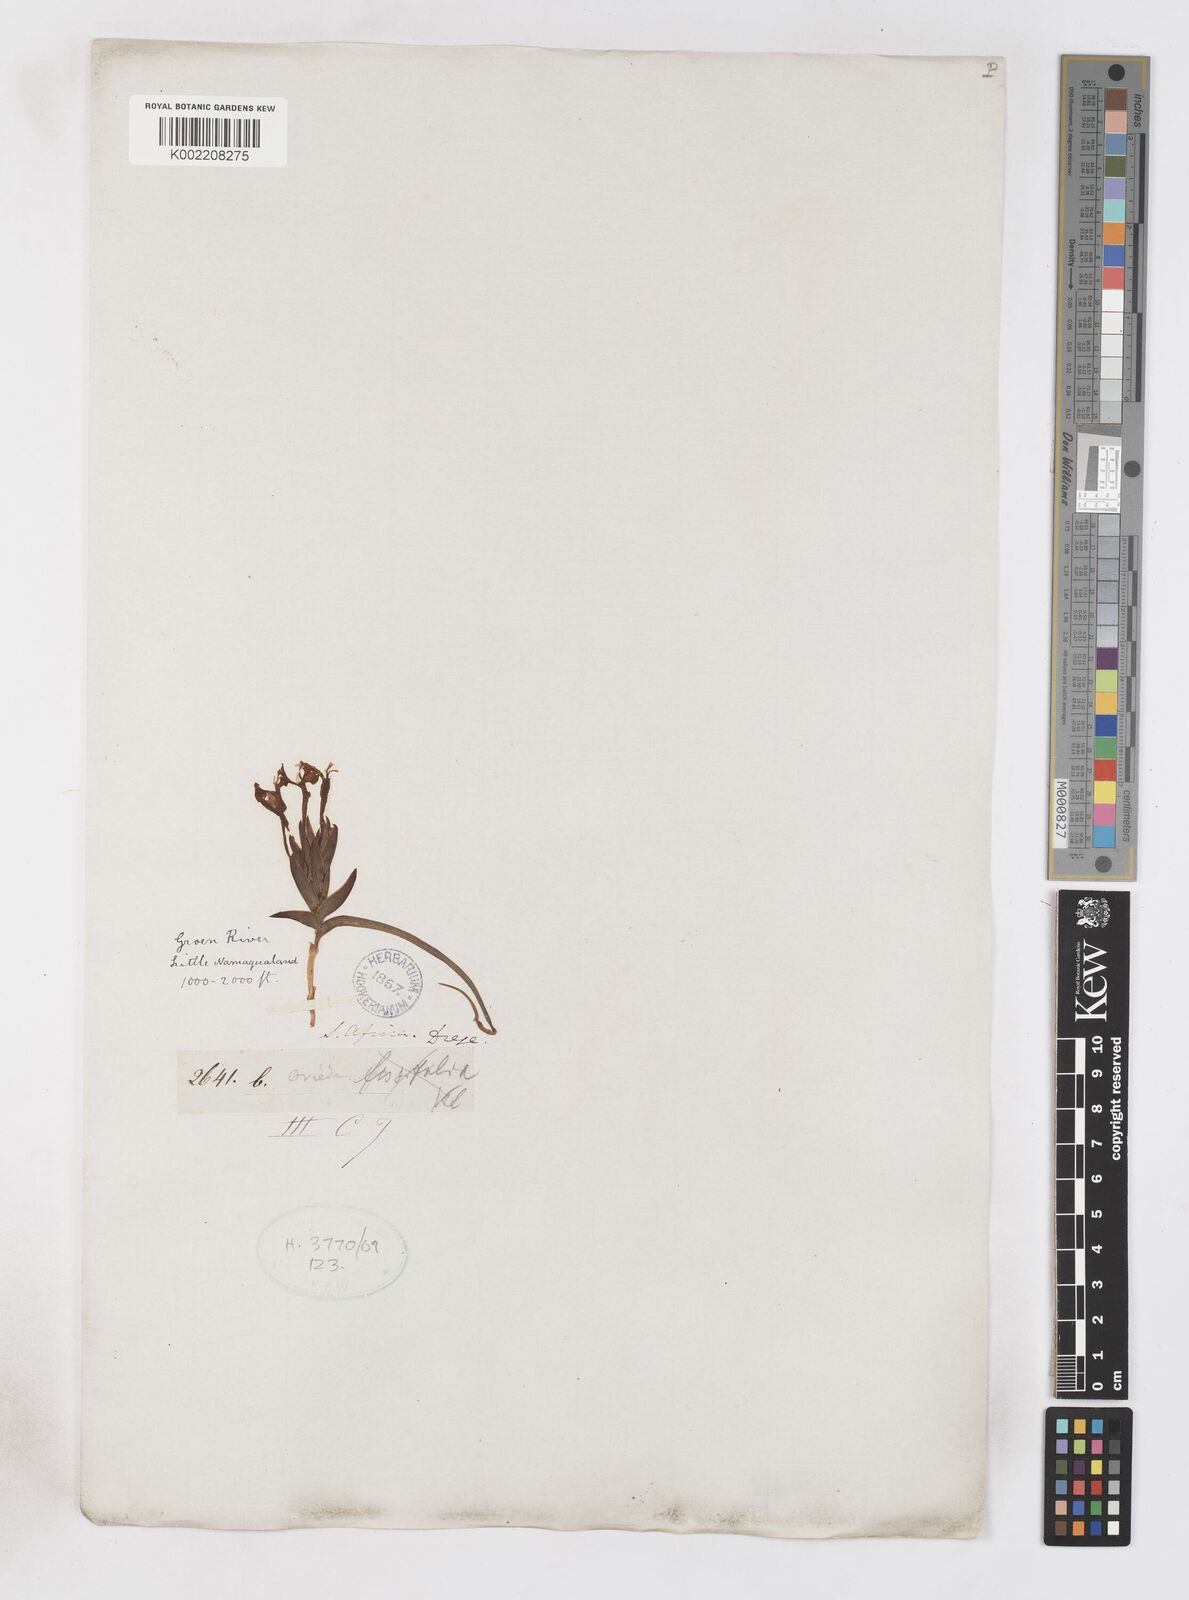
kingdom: Plantae
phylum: Tracheophyta
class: Liliopsida
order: Asparagales
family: Iridaceae
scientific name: Iridaceae
